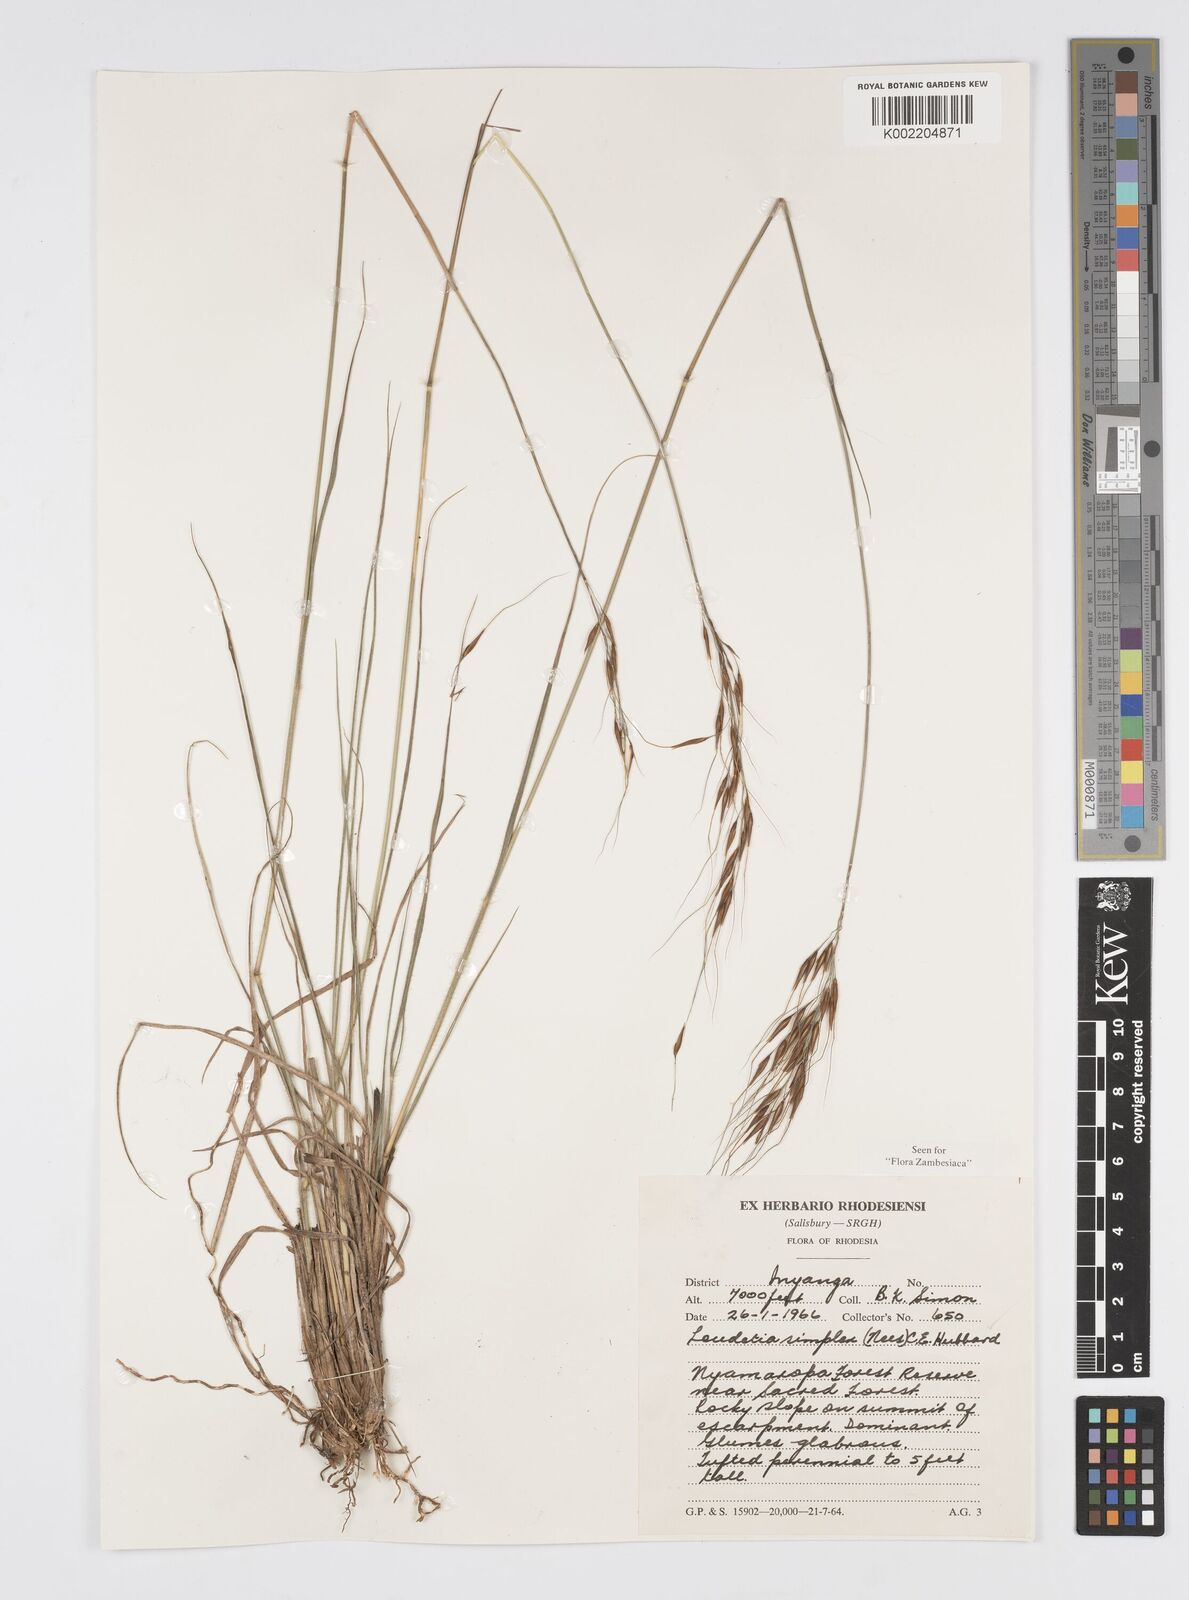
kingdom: Plantae
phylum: Tracheophyta
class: Liliopsida
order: Poales
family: Poaceae
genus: Loudetia
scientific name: Loudetia simplex
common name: Common russet grass
